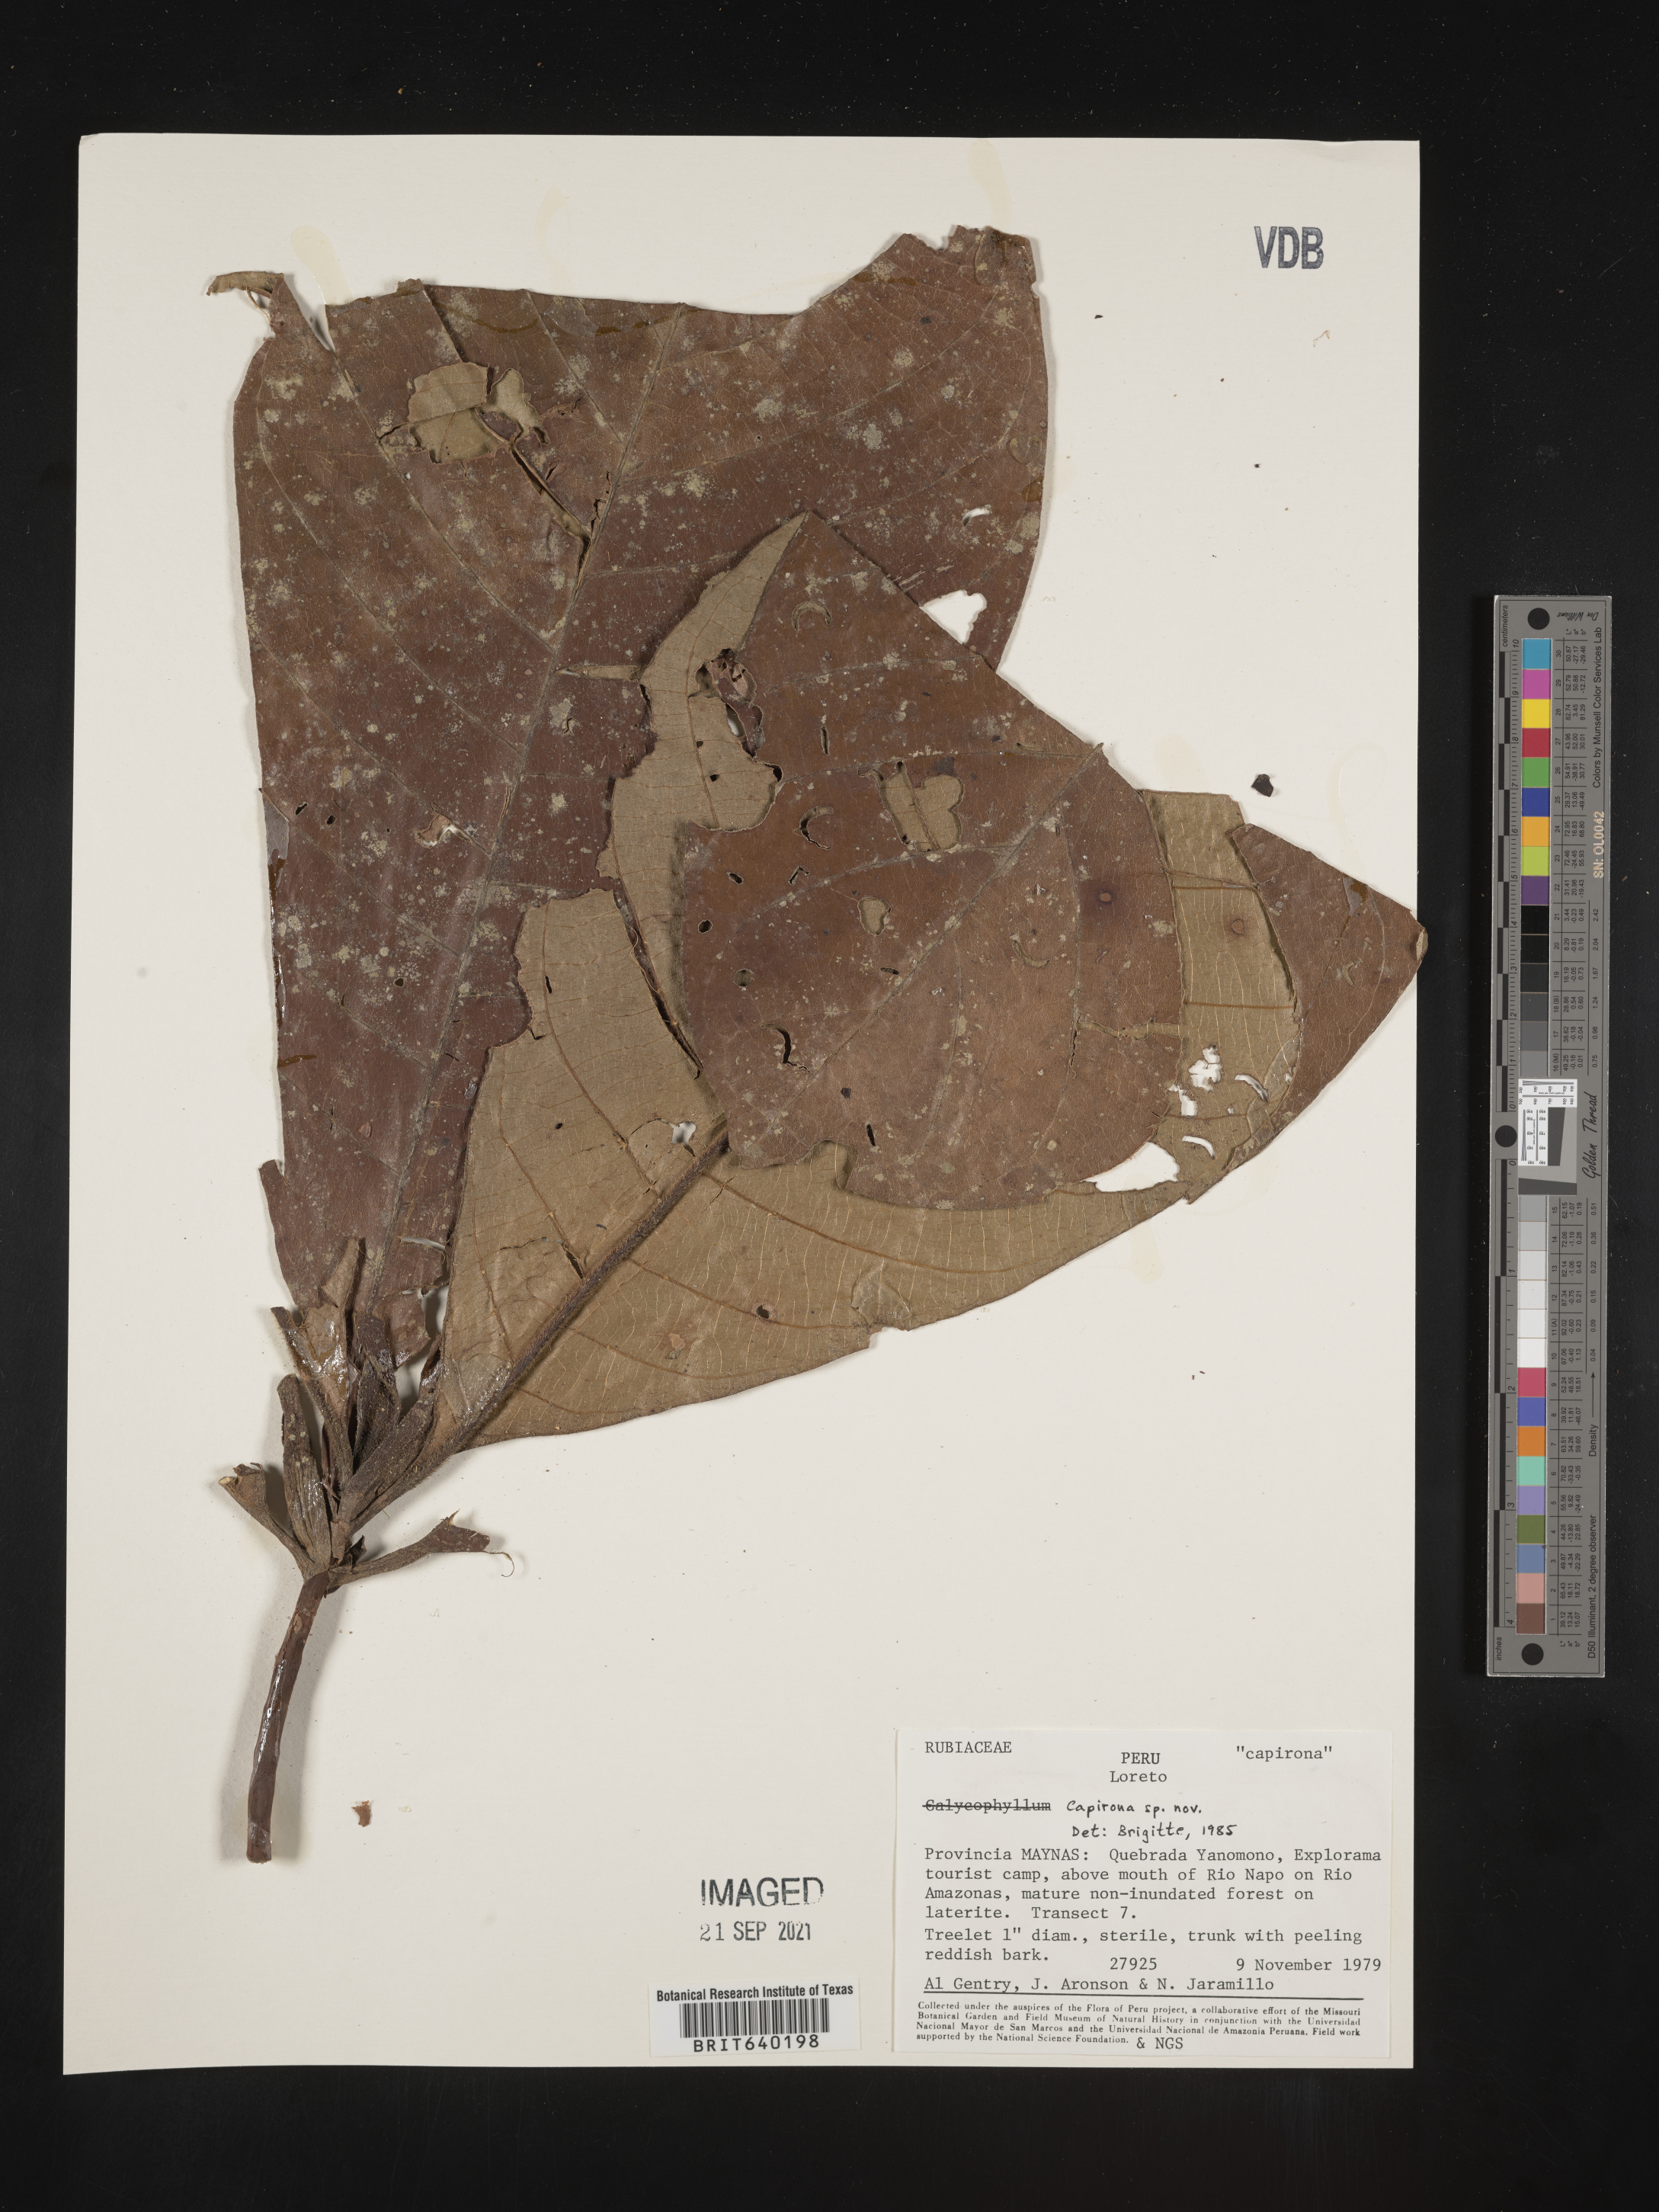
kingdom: Plantae
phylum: Tracheophyta
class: Magnoliopsida
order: Gentianales
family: Rubiaceae
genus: Canthium
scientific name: Canthium
